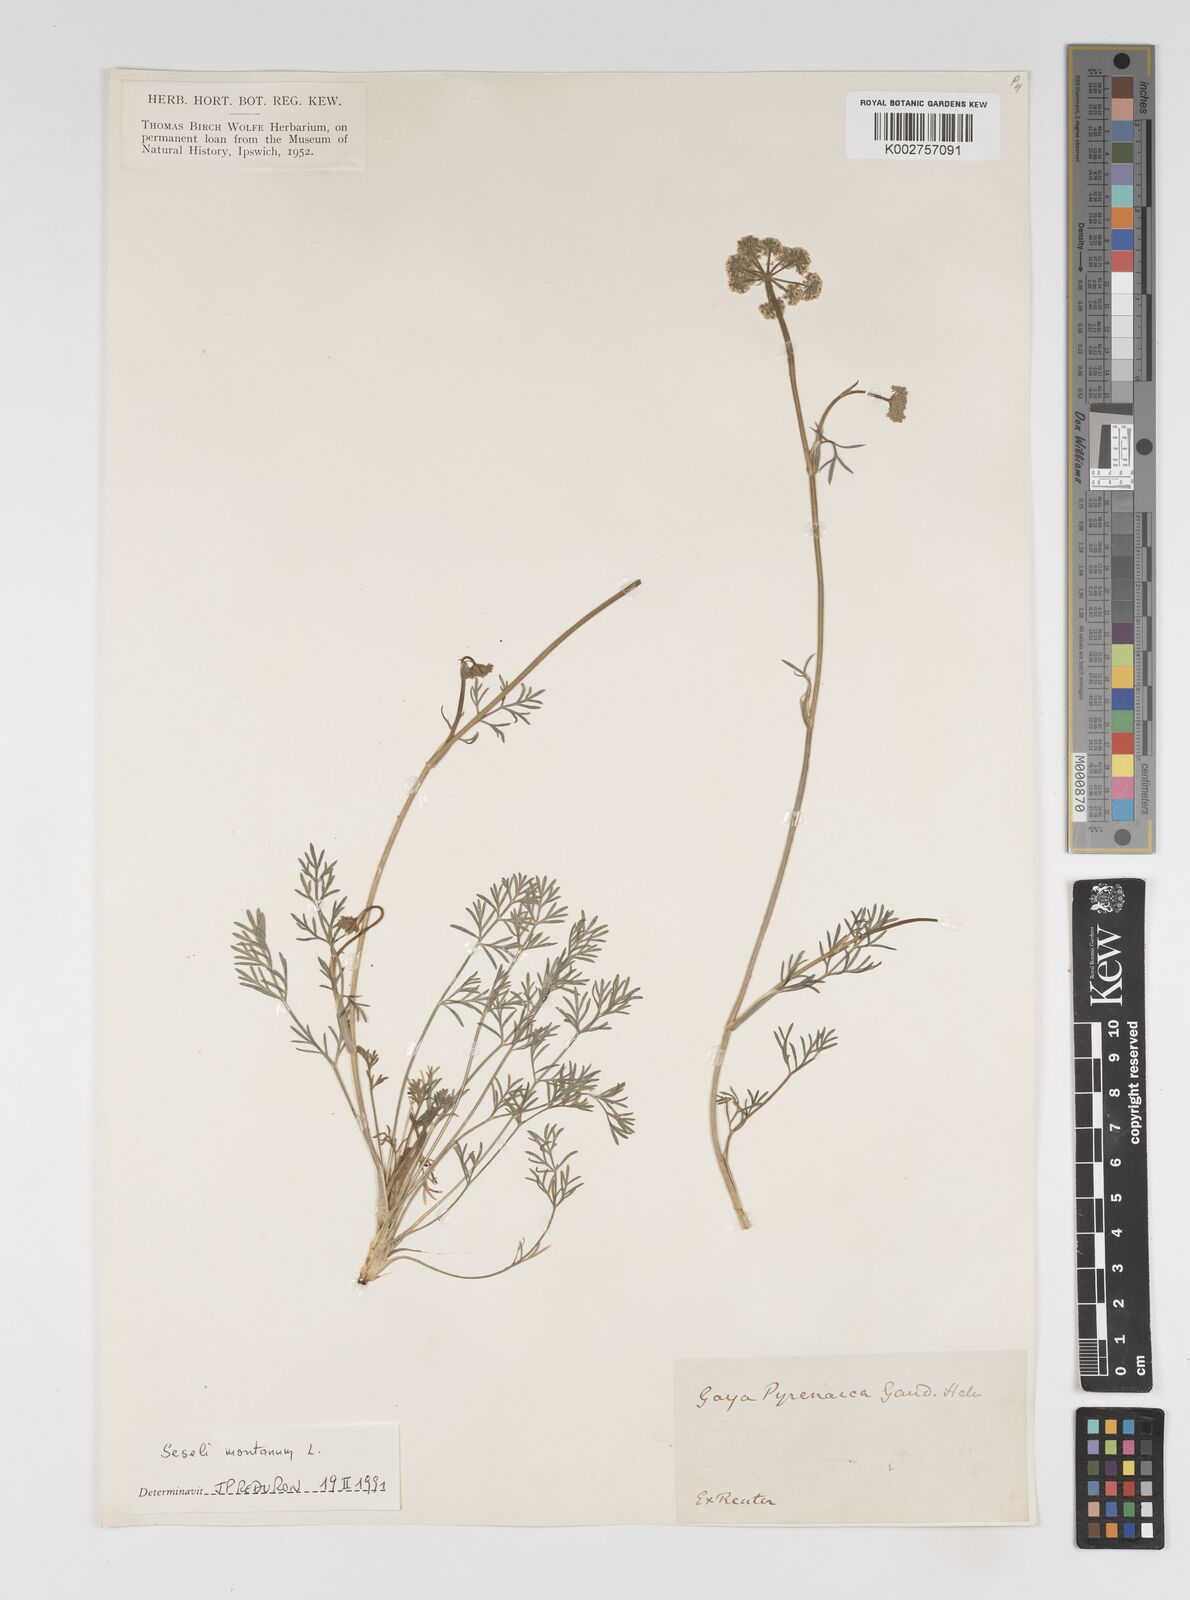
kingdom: Plantae
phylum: Tracheophyta
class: Magnoliopsida
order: Apiales
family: Apiaceae
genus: Seseli
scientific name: Seseli montanum
